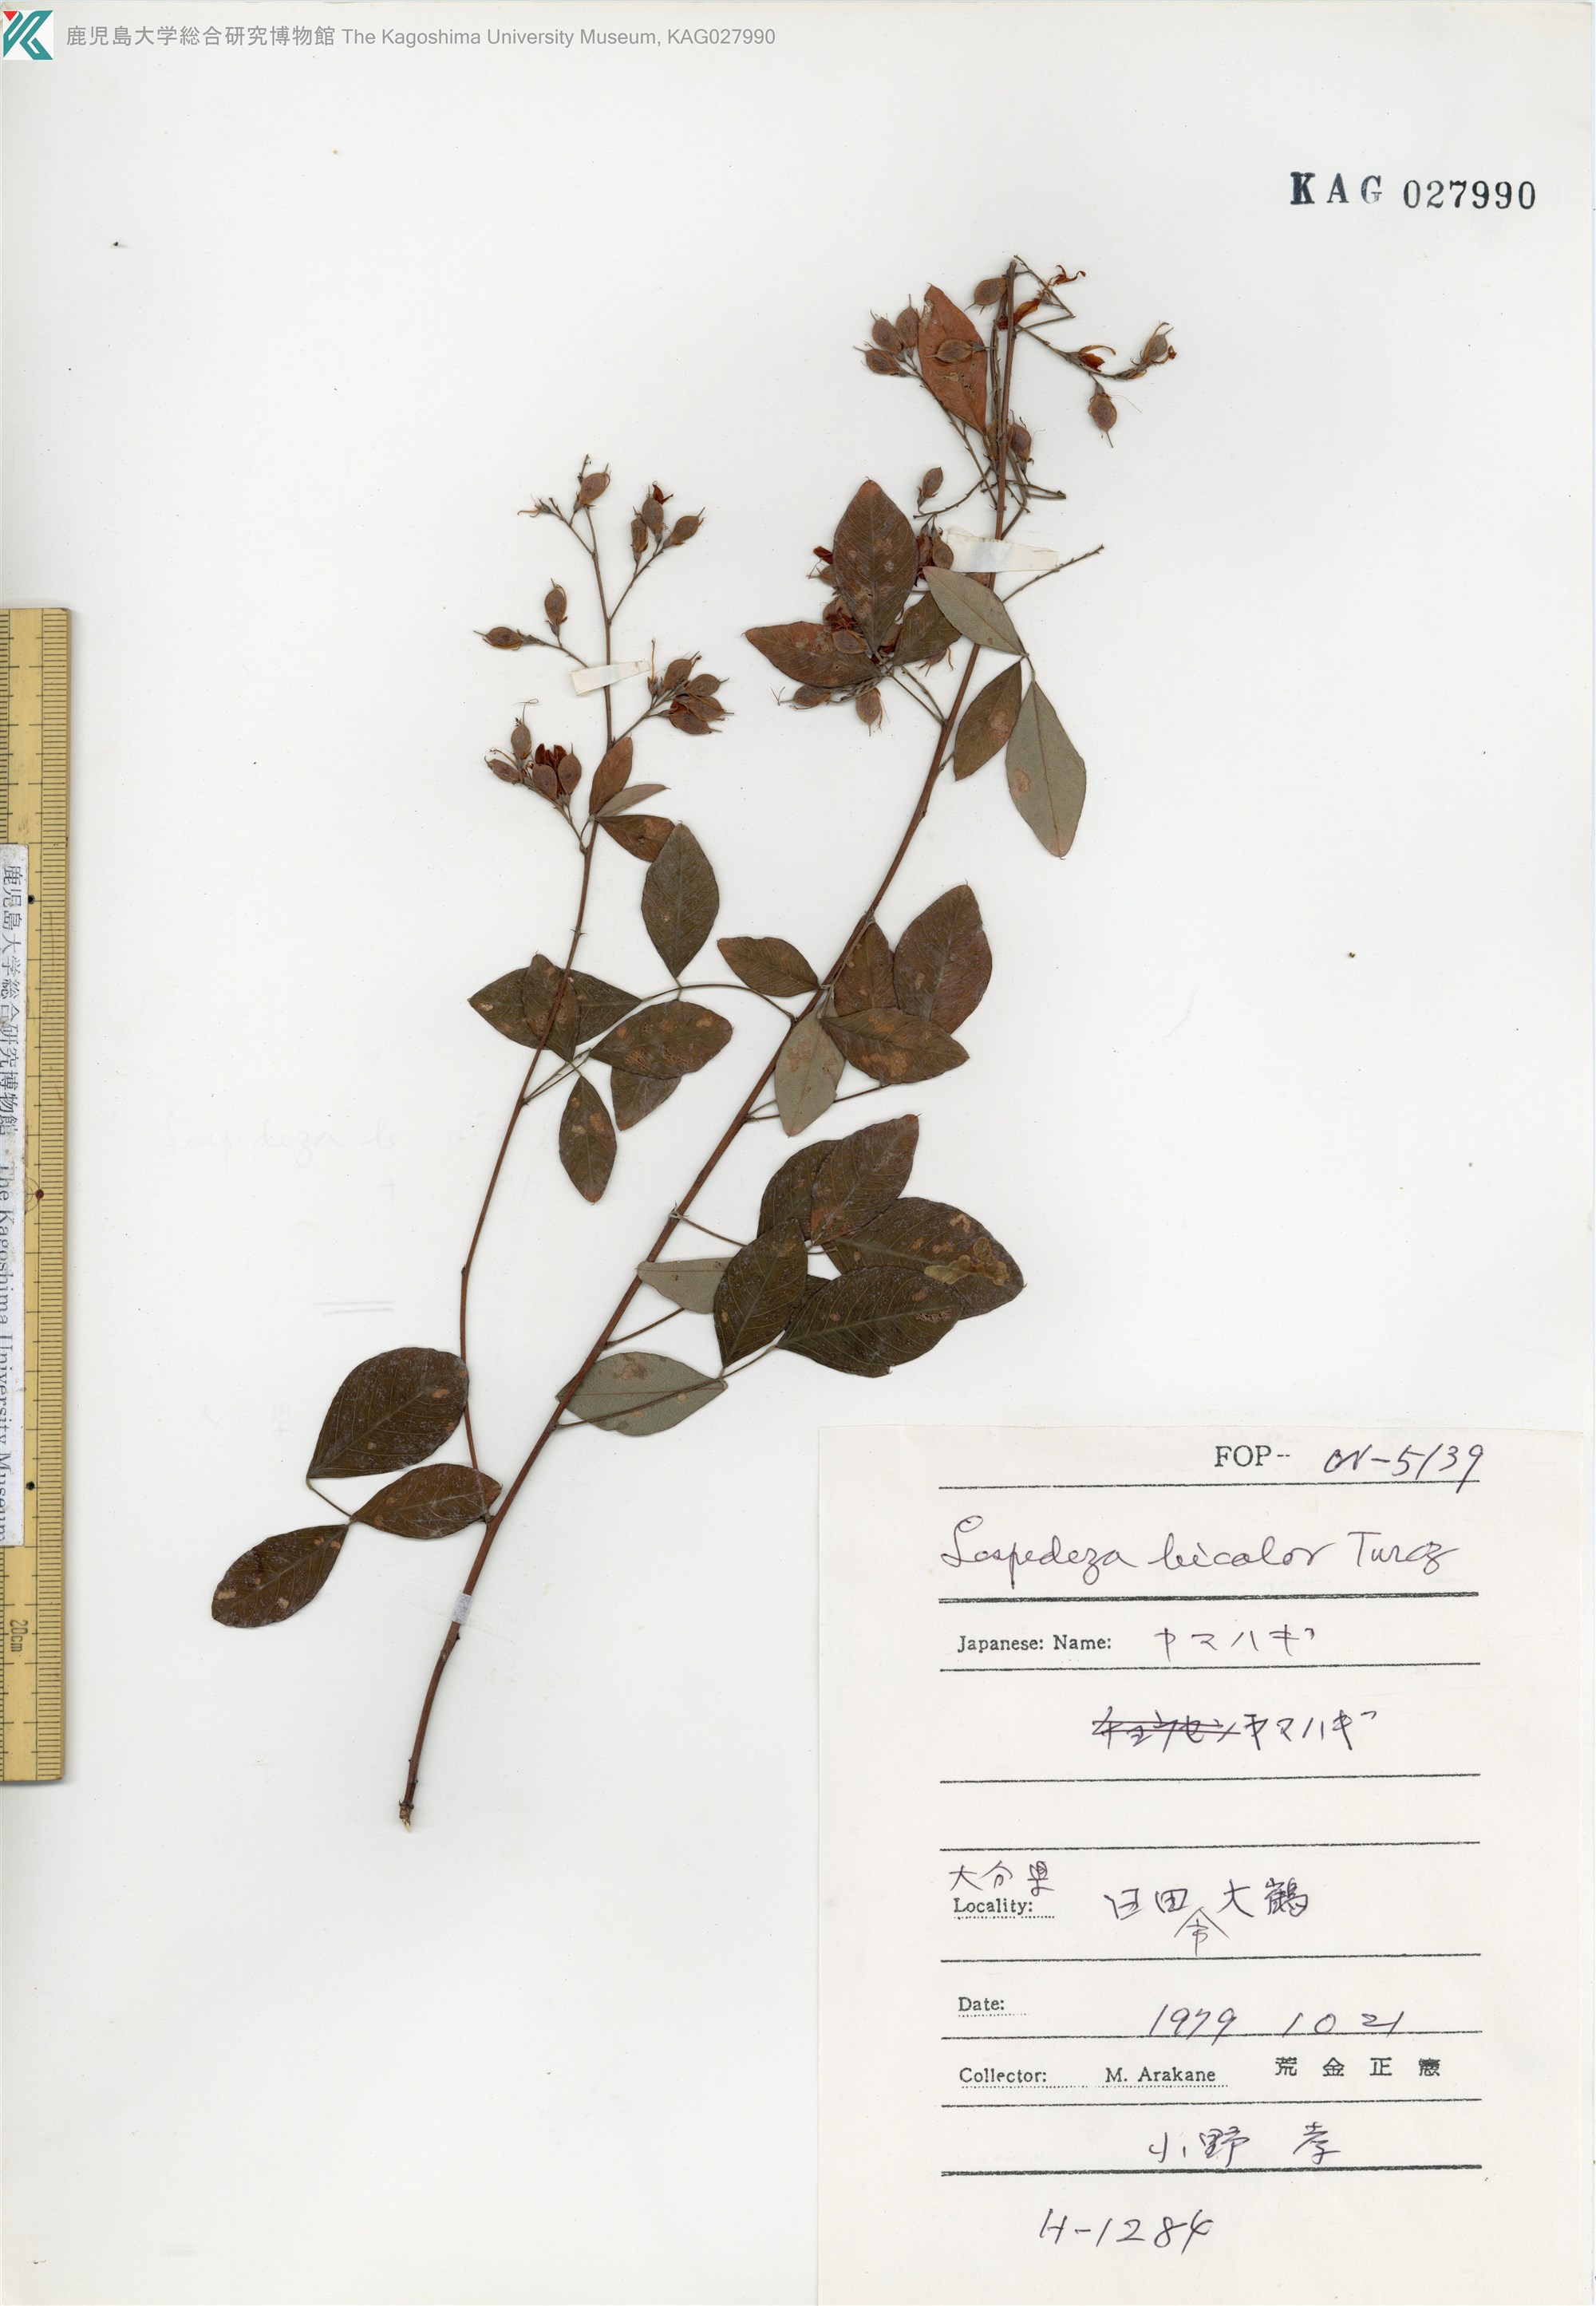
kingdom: Plantae
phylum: Tracheophyta
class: Magnoliopsida
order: Fabales
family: Fabaceae
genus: Lespedeza
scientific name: Lespedeza bicolor
